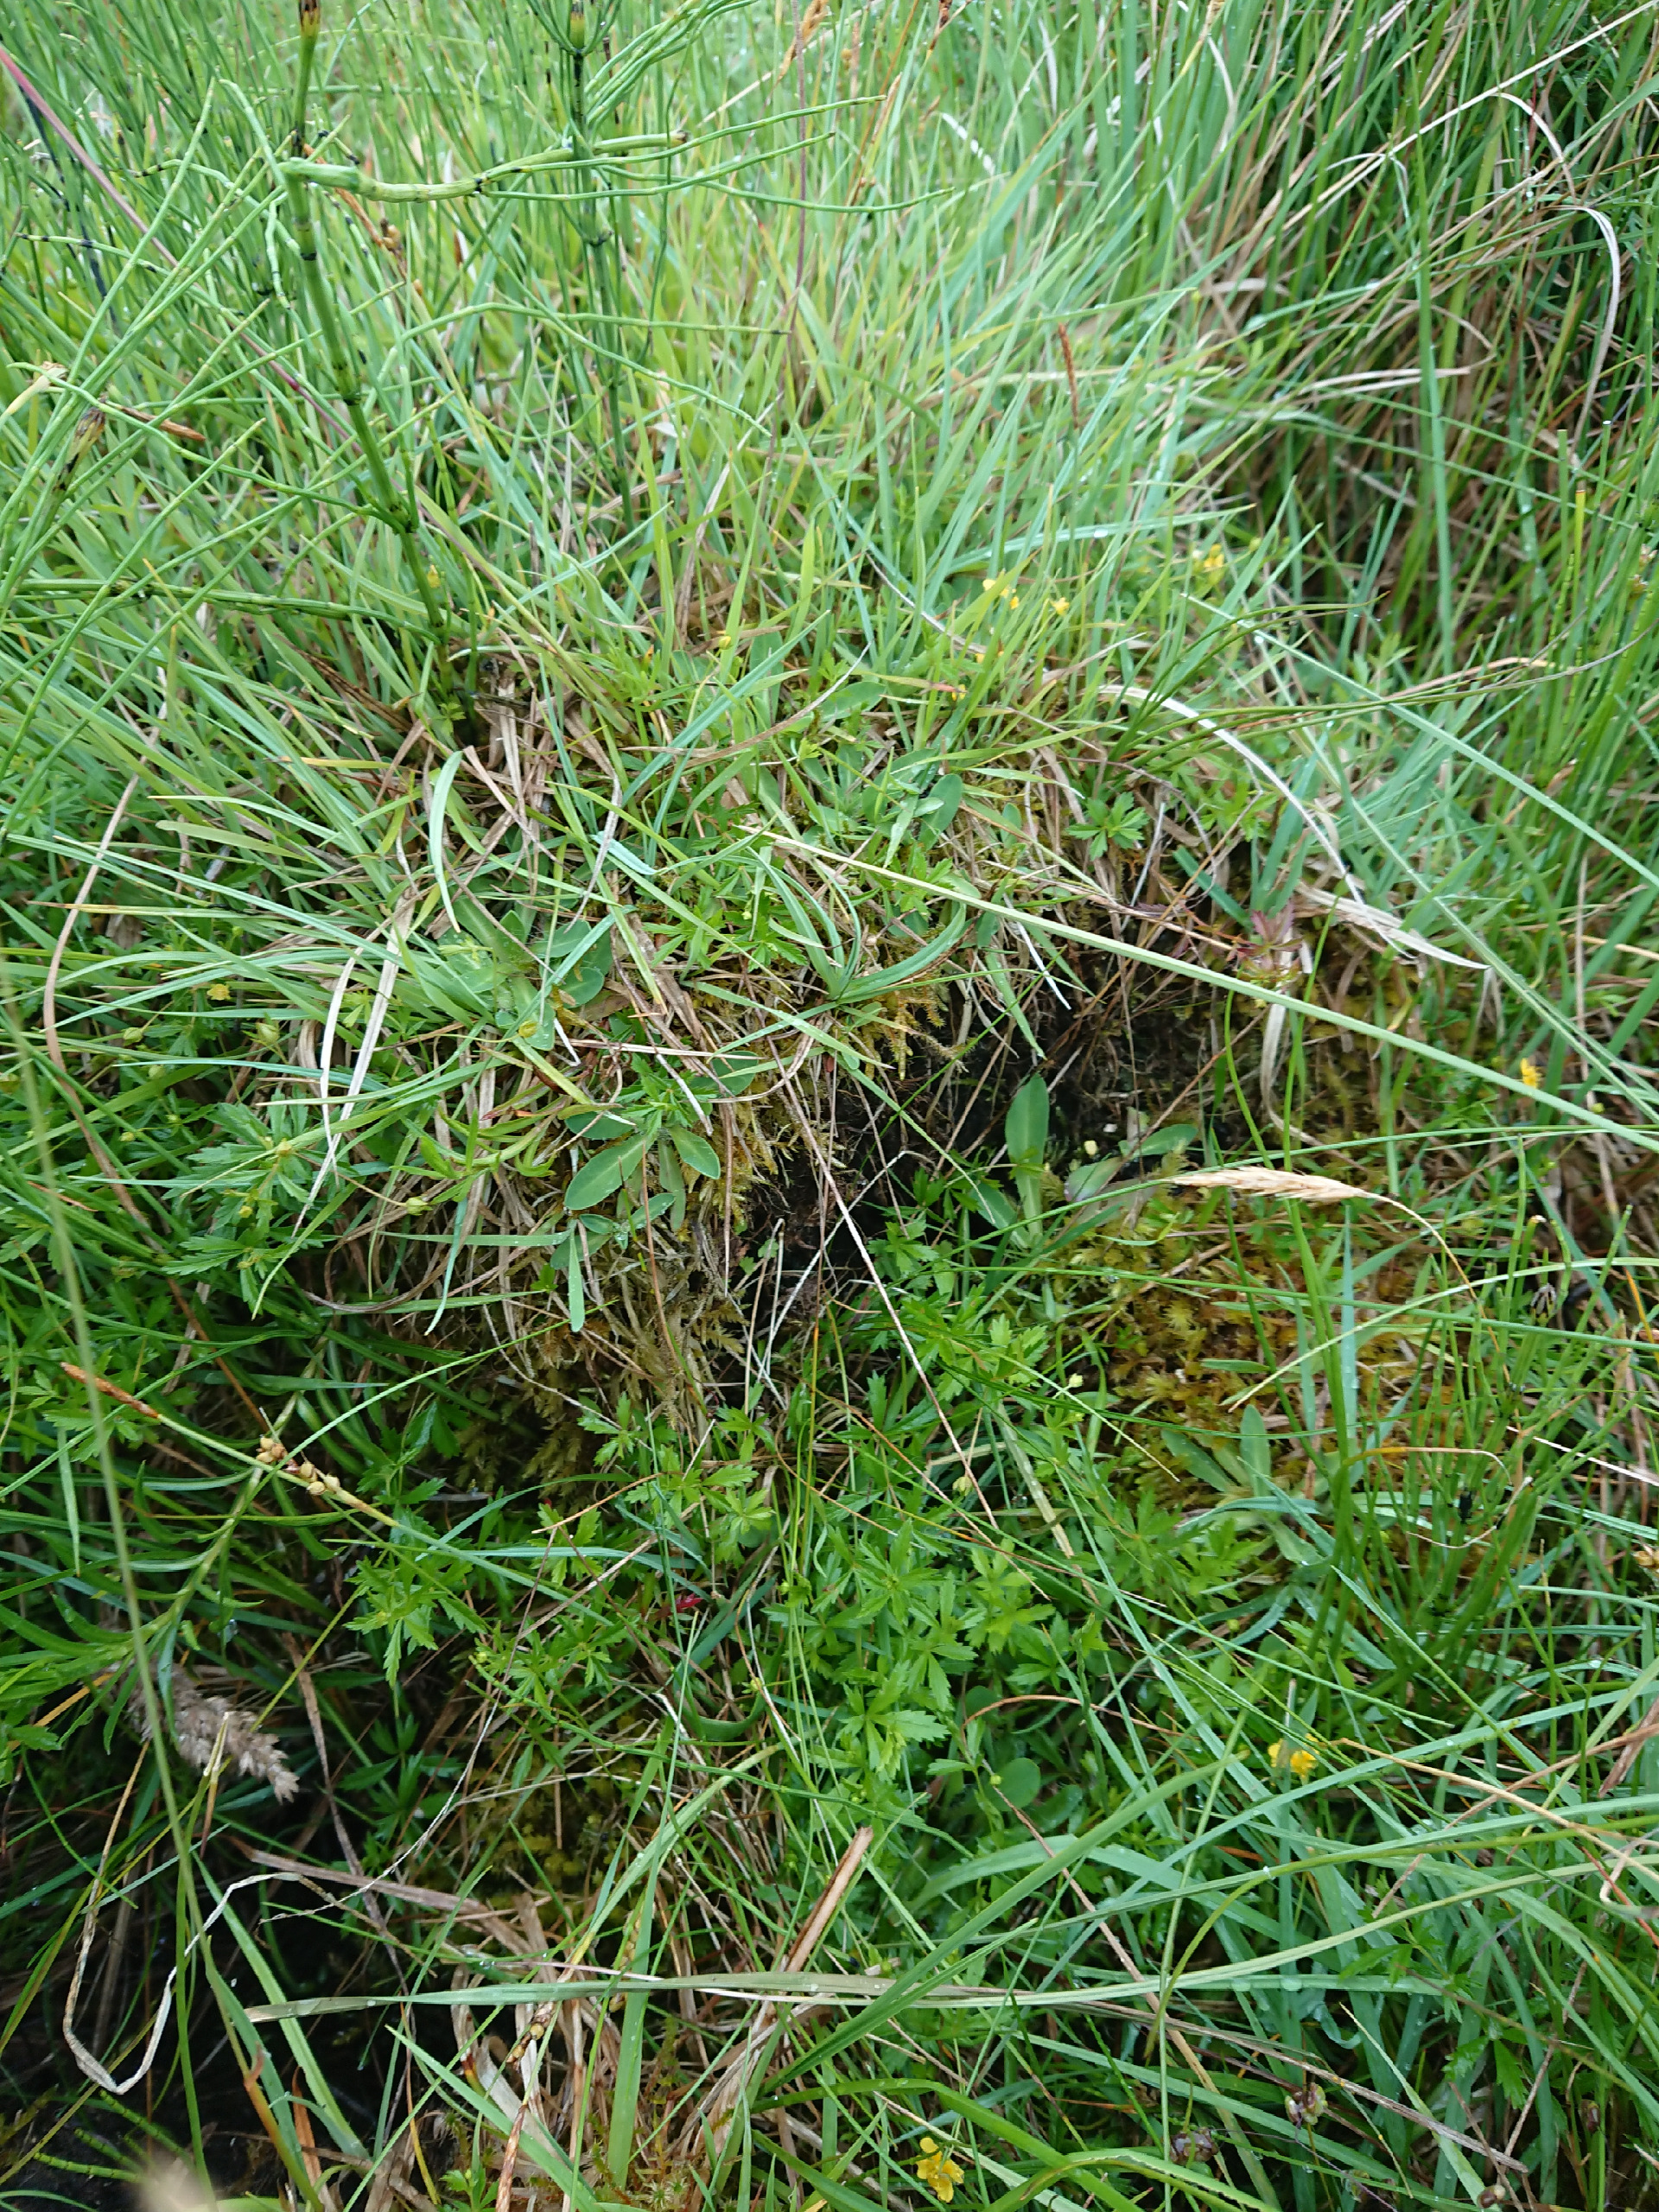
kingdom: Plantae
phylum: Tracheophyta
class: Magnoliopsida
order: Asterales
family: Asteraceae
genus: Pilosella
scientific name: Pilosella lactucella
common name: Lancetbladet høgeurt
